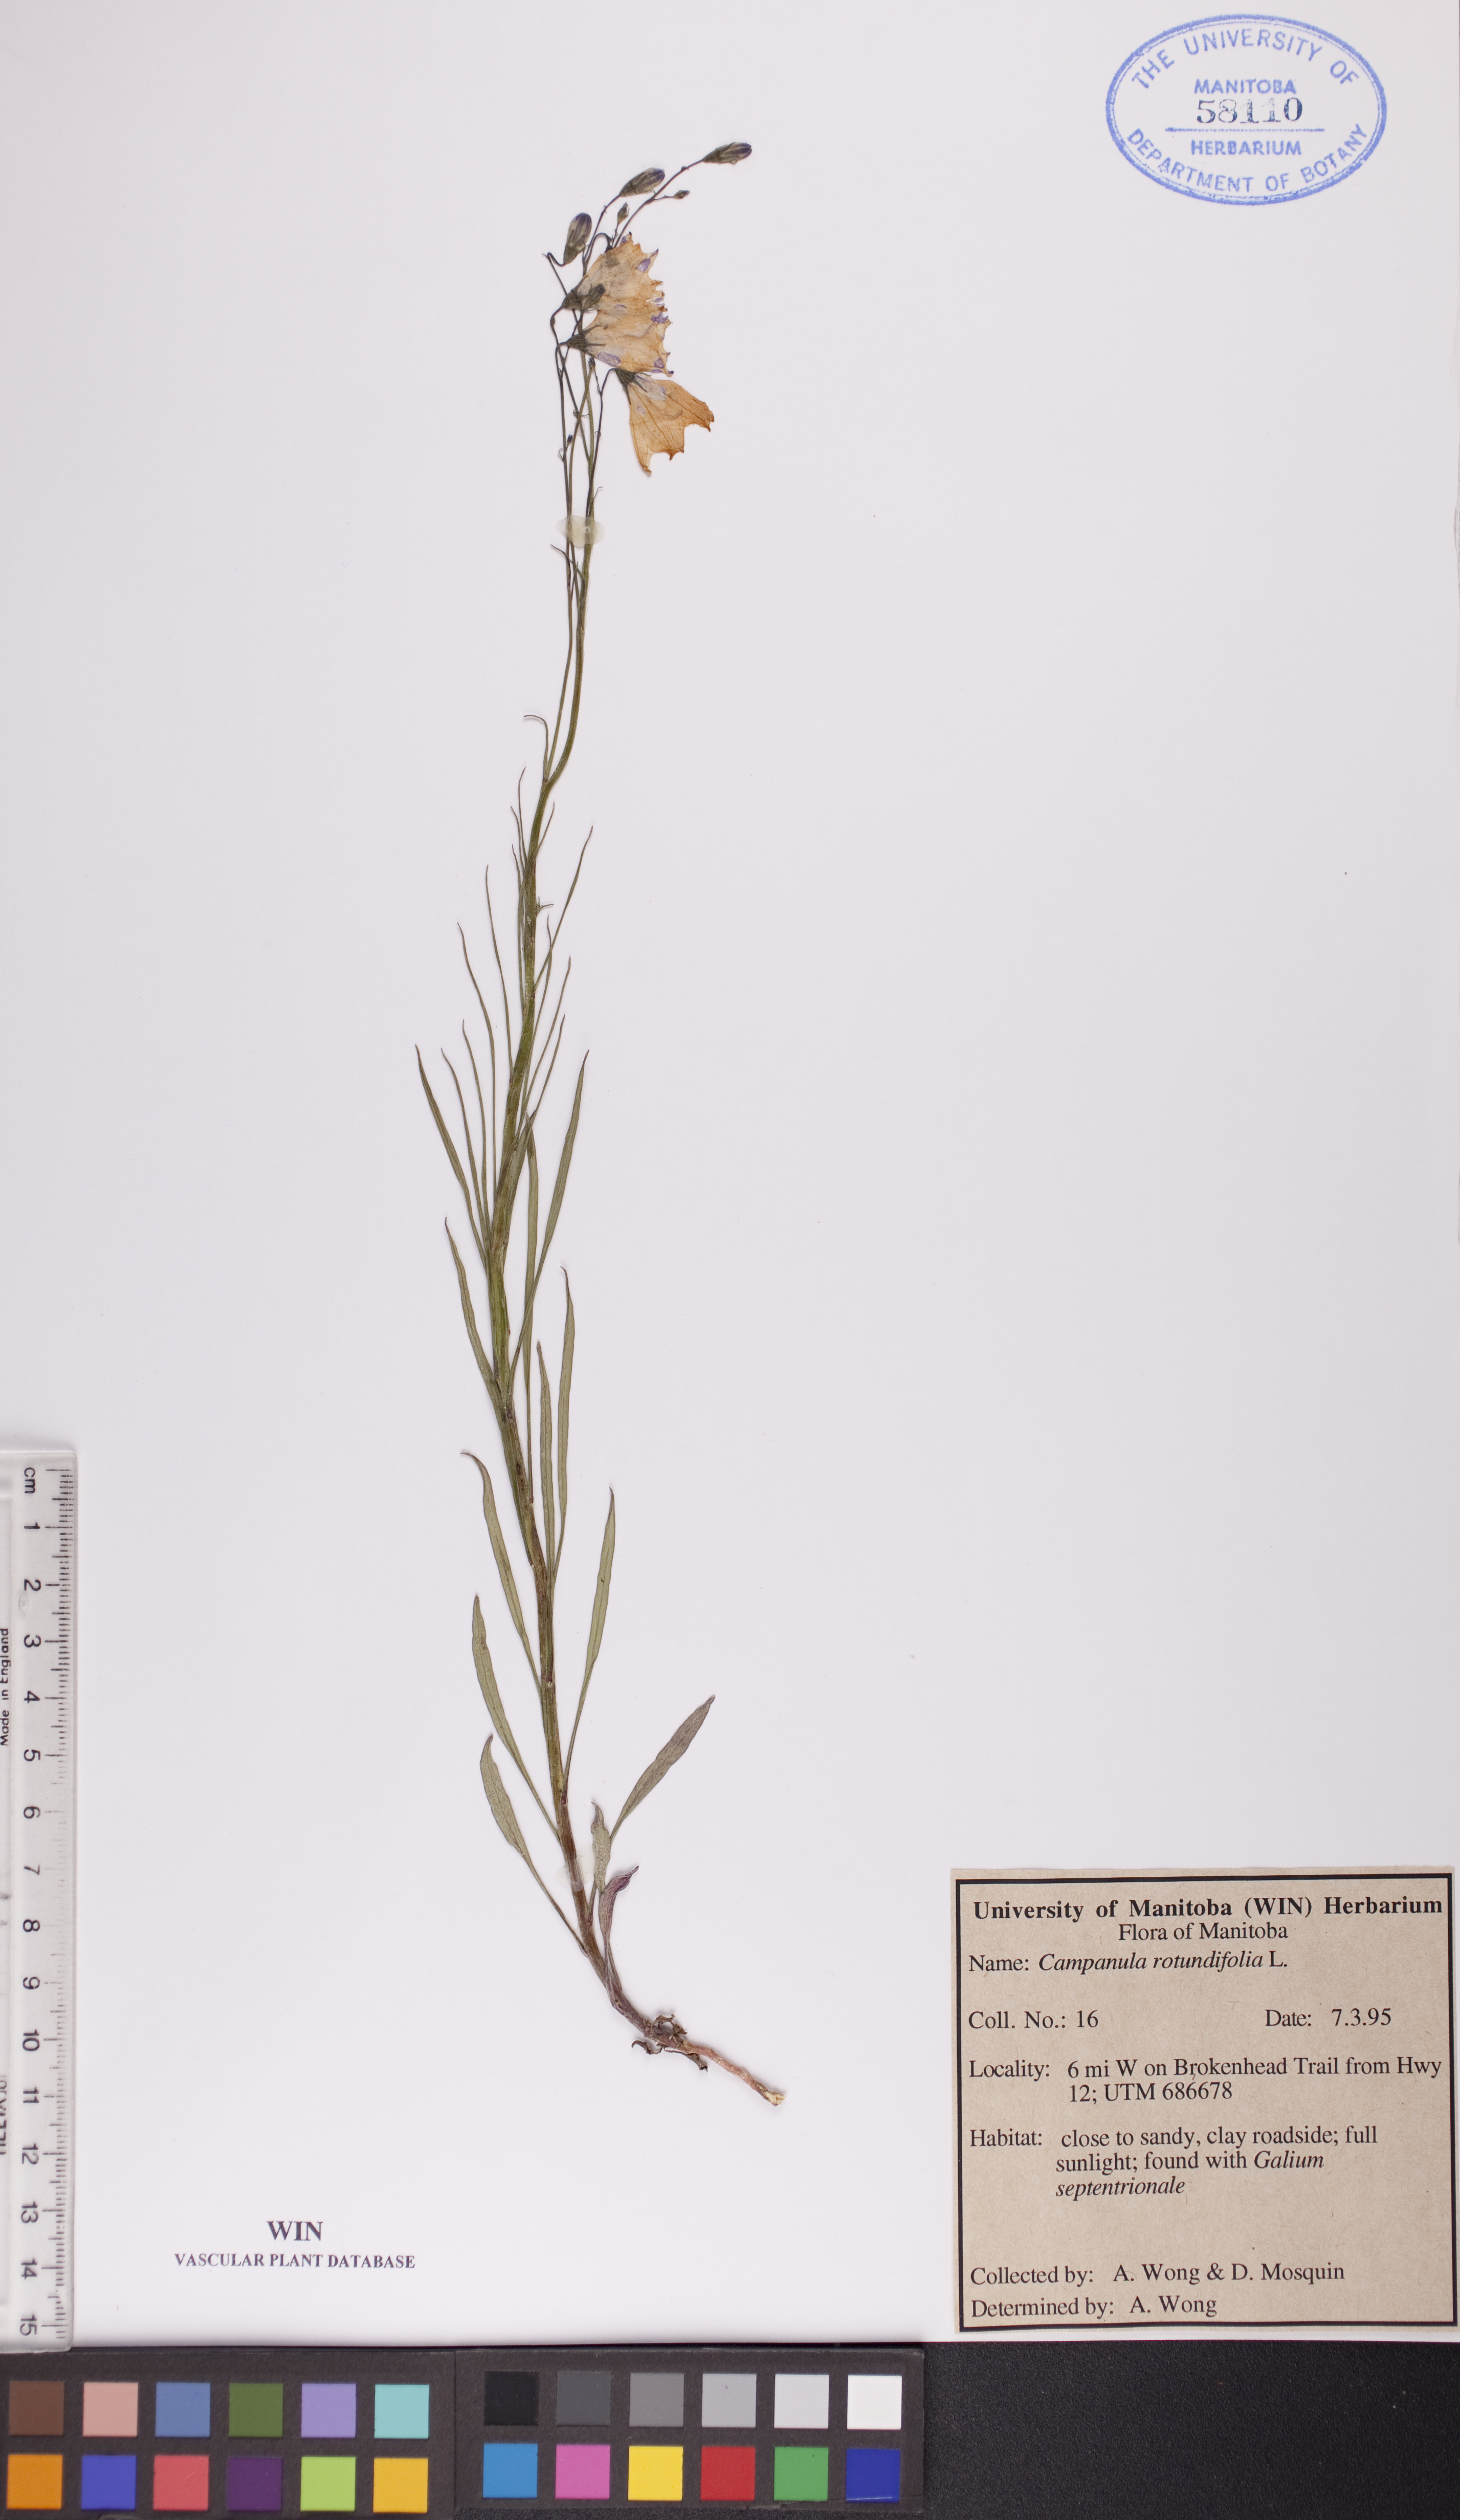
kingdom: Plantae
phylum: Tracheophyta
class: Magnoliopsida
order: Asterales
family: Campanulaceae
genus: Campanula
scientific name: Campanula rotundifolia
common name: Harebell
